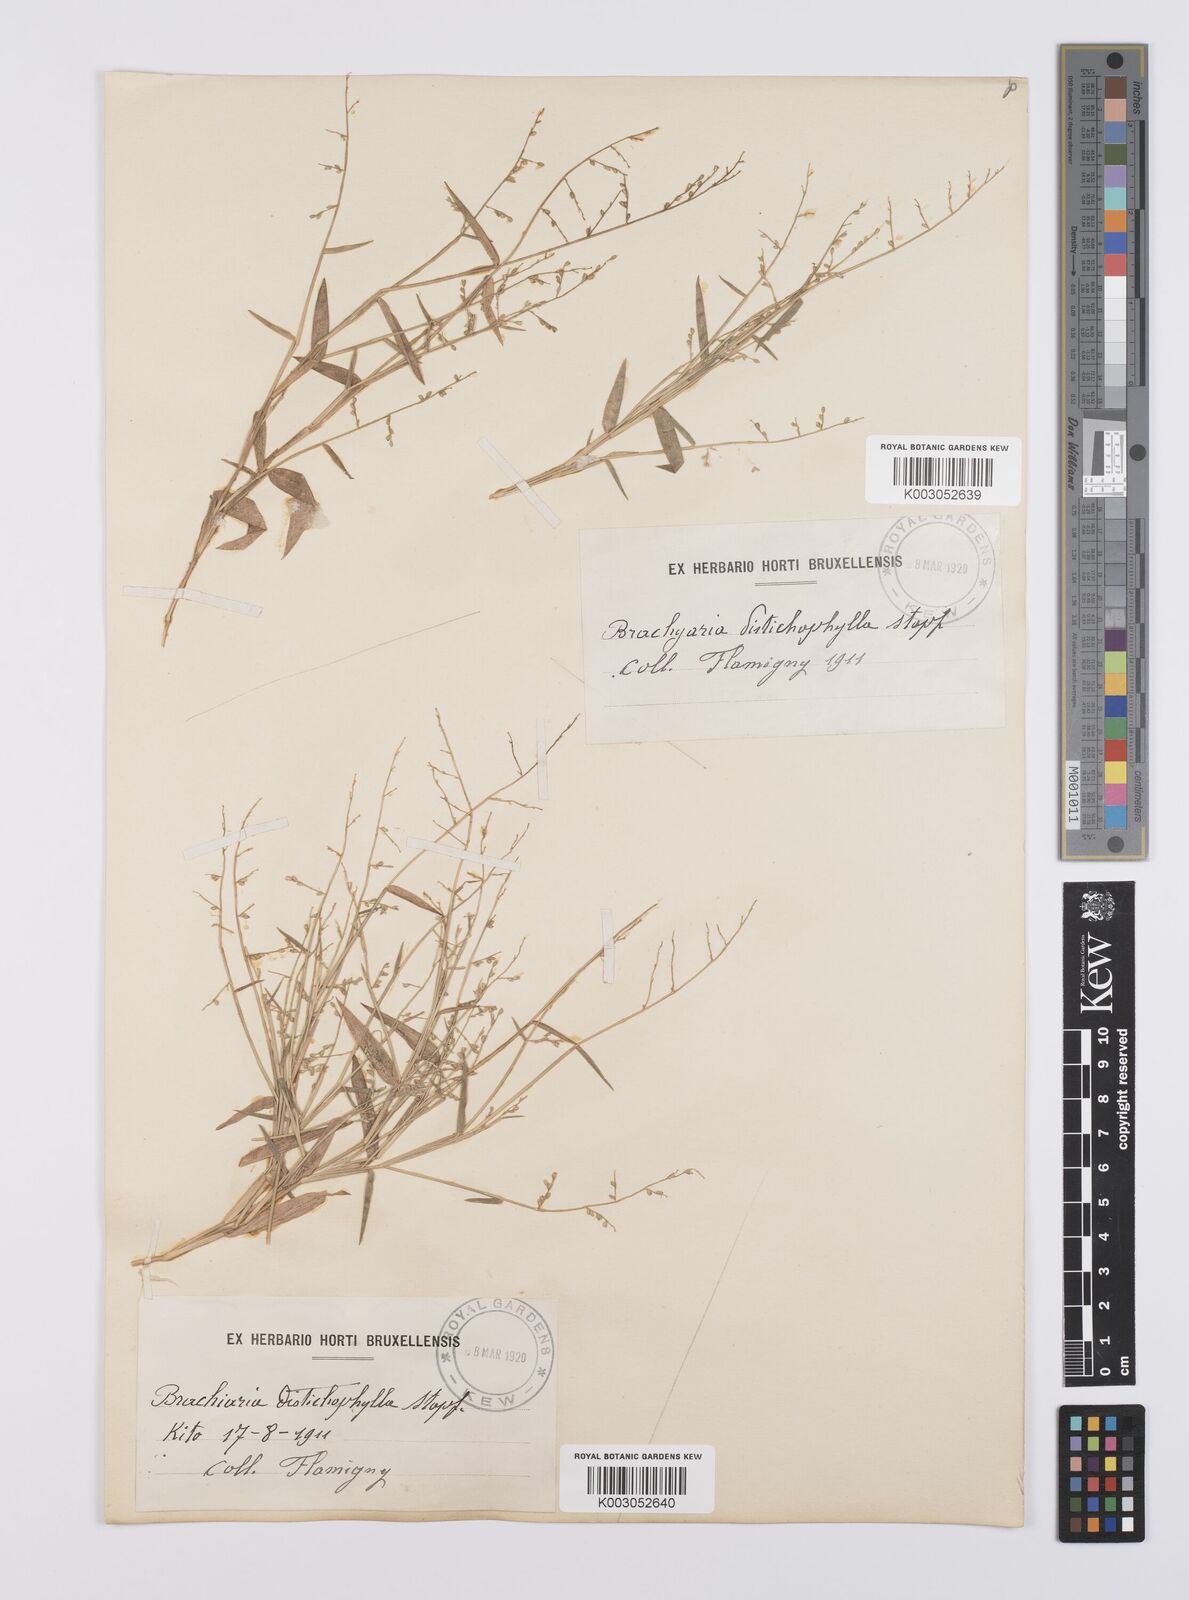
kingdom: Plantae
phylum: Tracheophyta
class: Liliopsida
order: Poales
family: Poaceae
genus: Urochloa
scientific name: Urochloa villosa
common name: Hairy signalgrass
